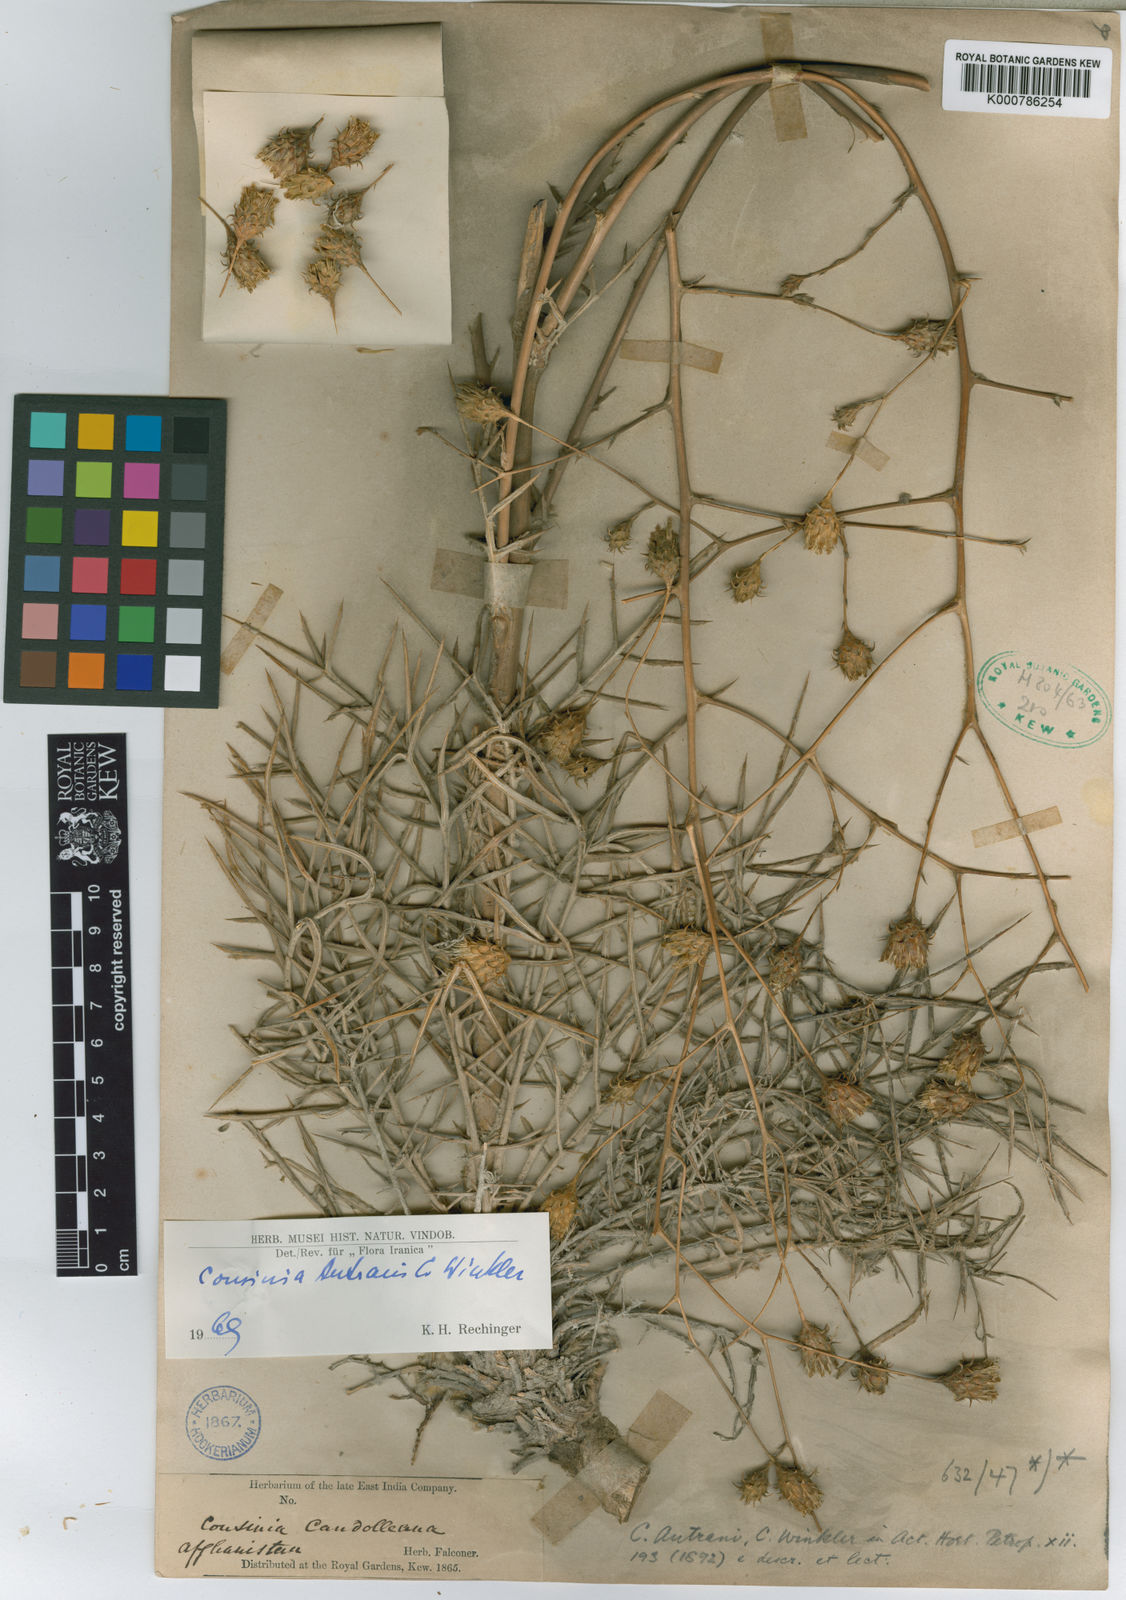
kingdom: Plantae
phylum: Tracheophyta
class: Magnoliopsida
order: Asterales
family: Asteraceae
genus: Cousinia
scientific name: Cousinia autranii
